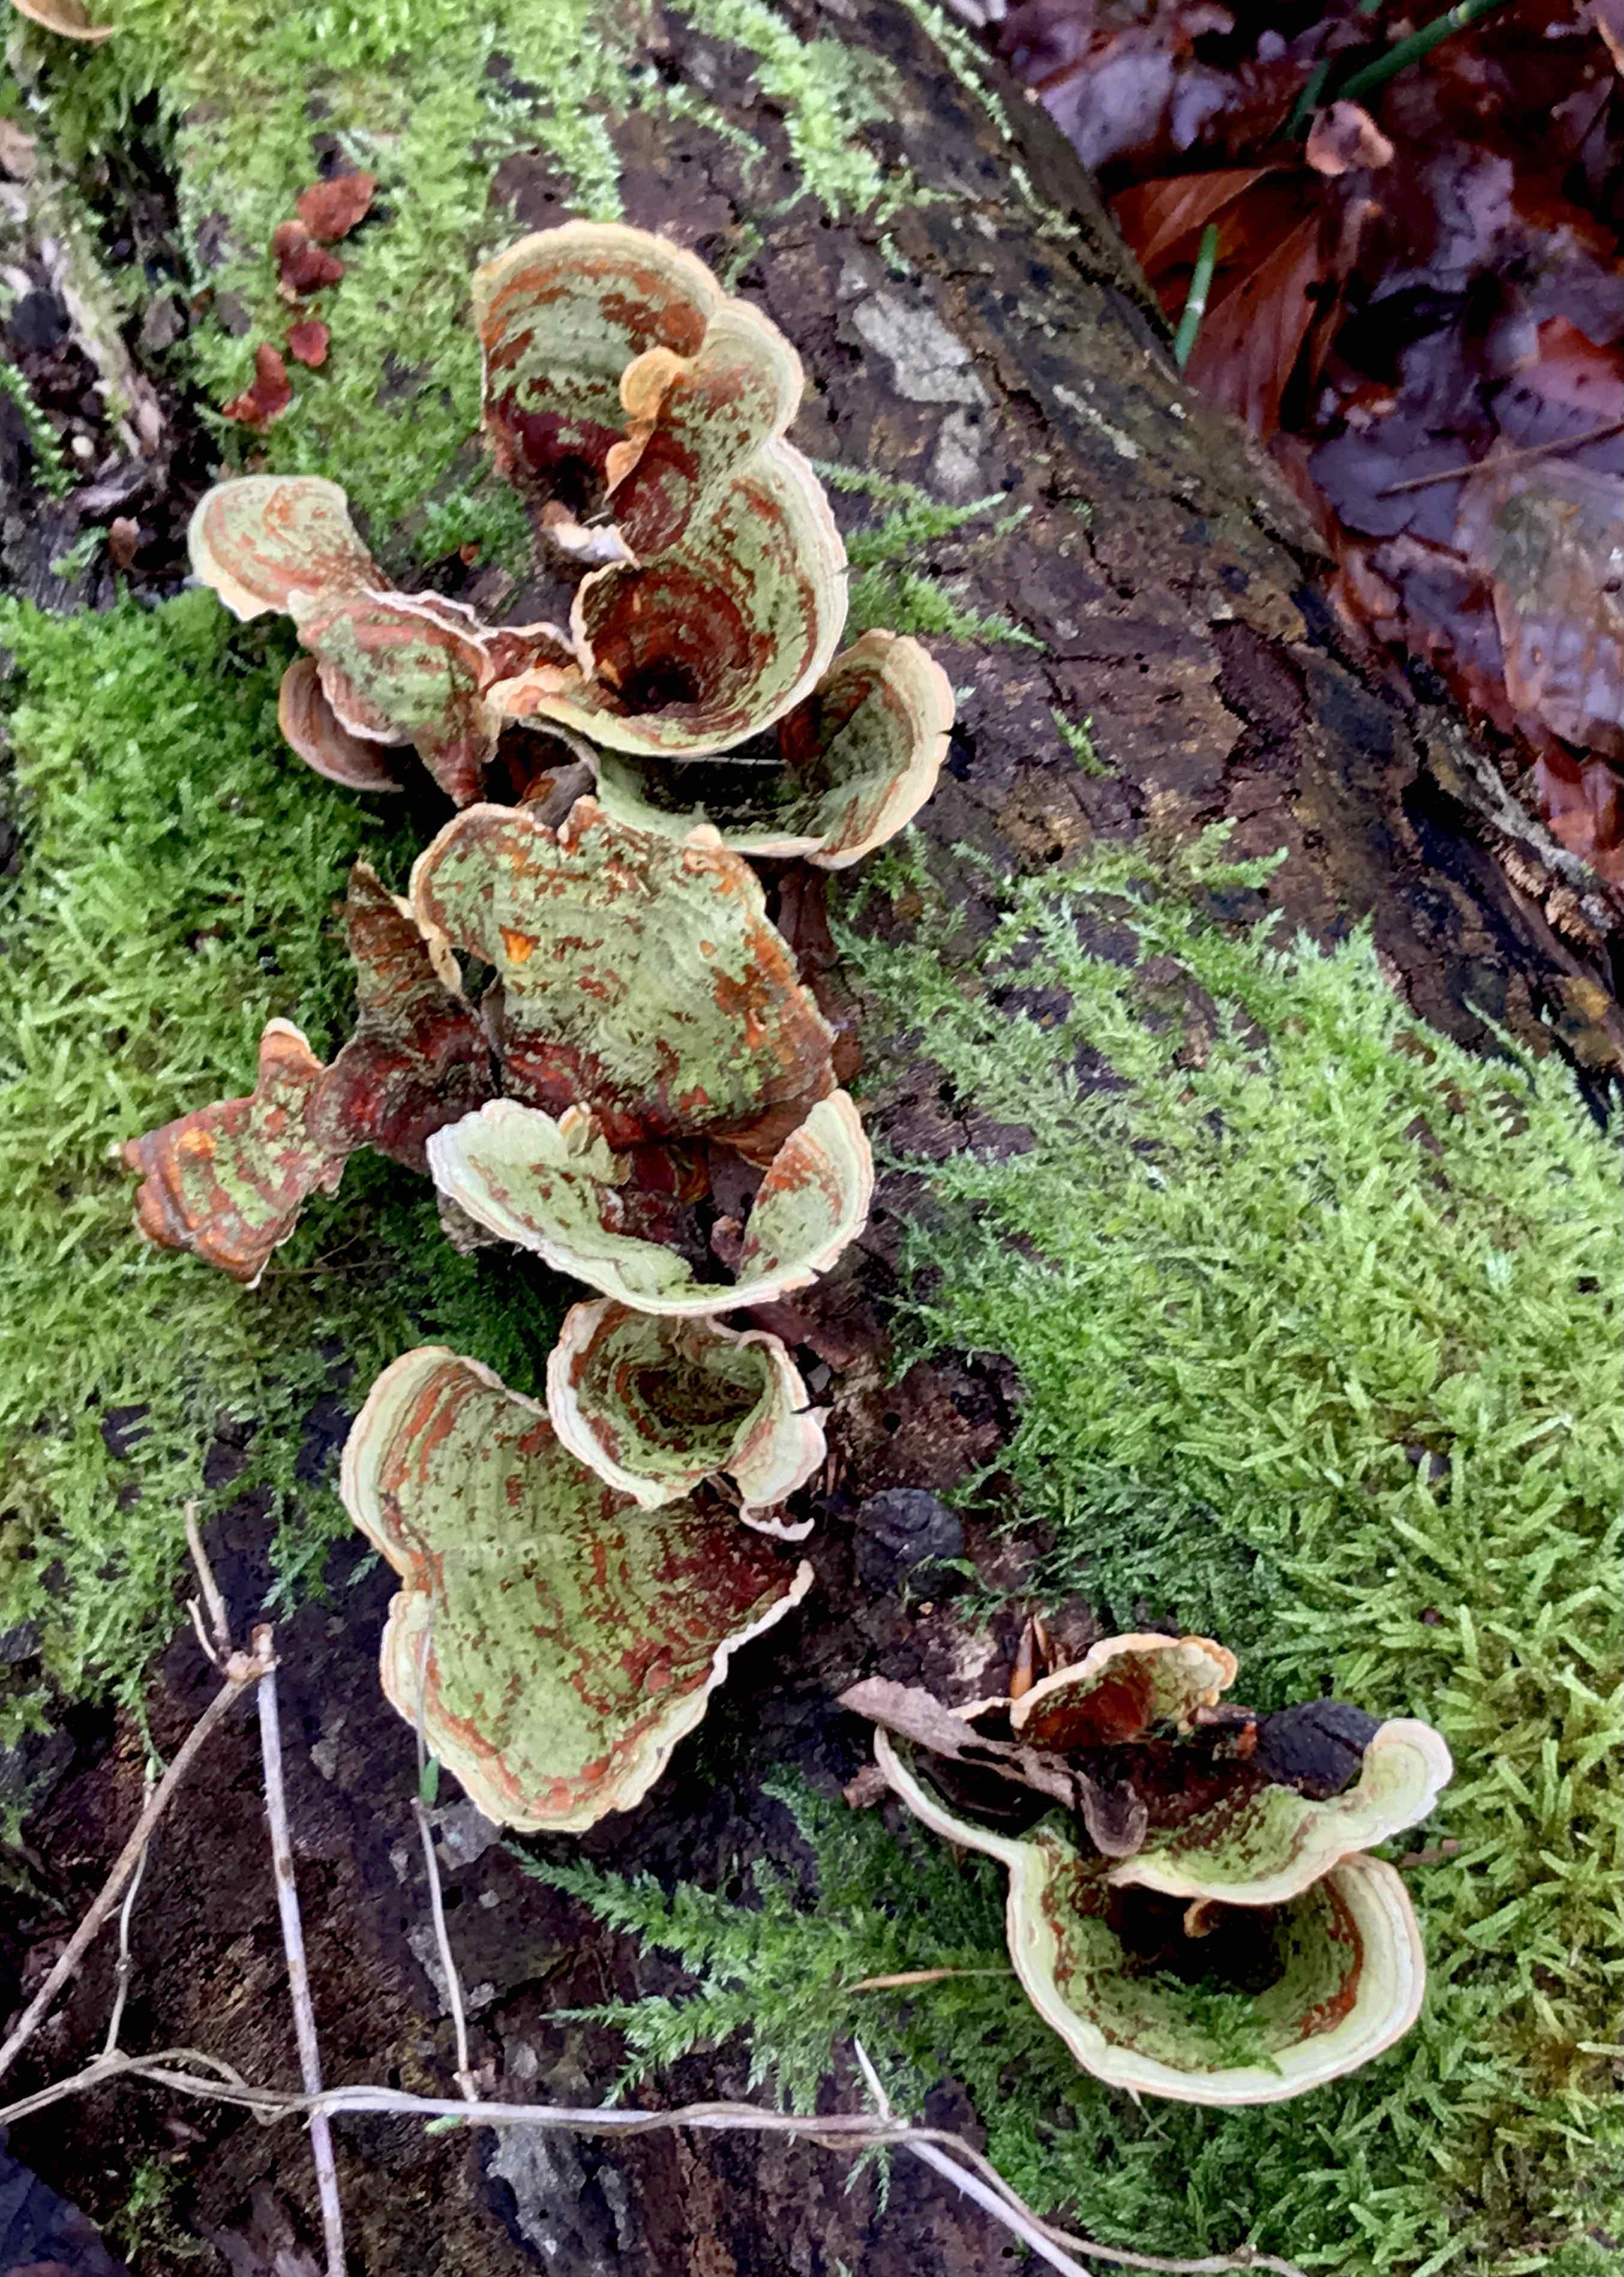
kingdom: Fungi
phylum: Basidiomycota
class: Agaricomycetes
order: Russulales
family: Stereaceae
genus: Stereum
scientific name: Stereum subtomentosum
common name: smuk lædersvamp
